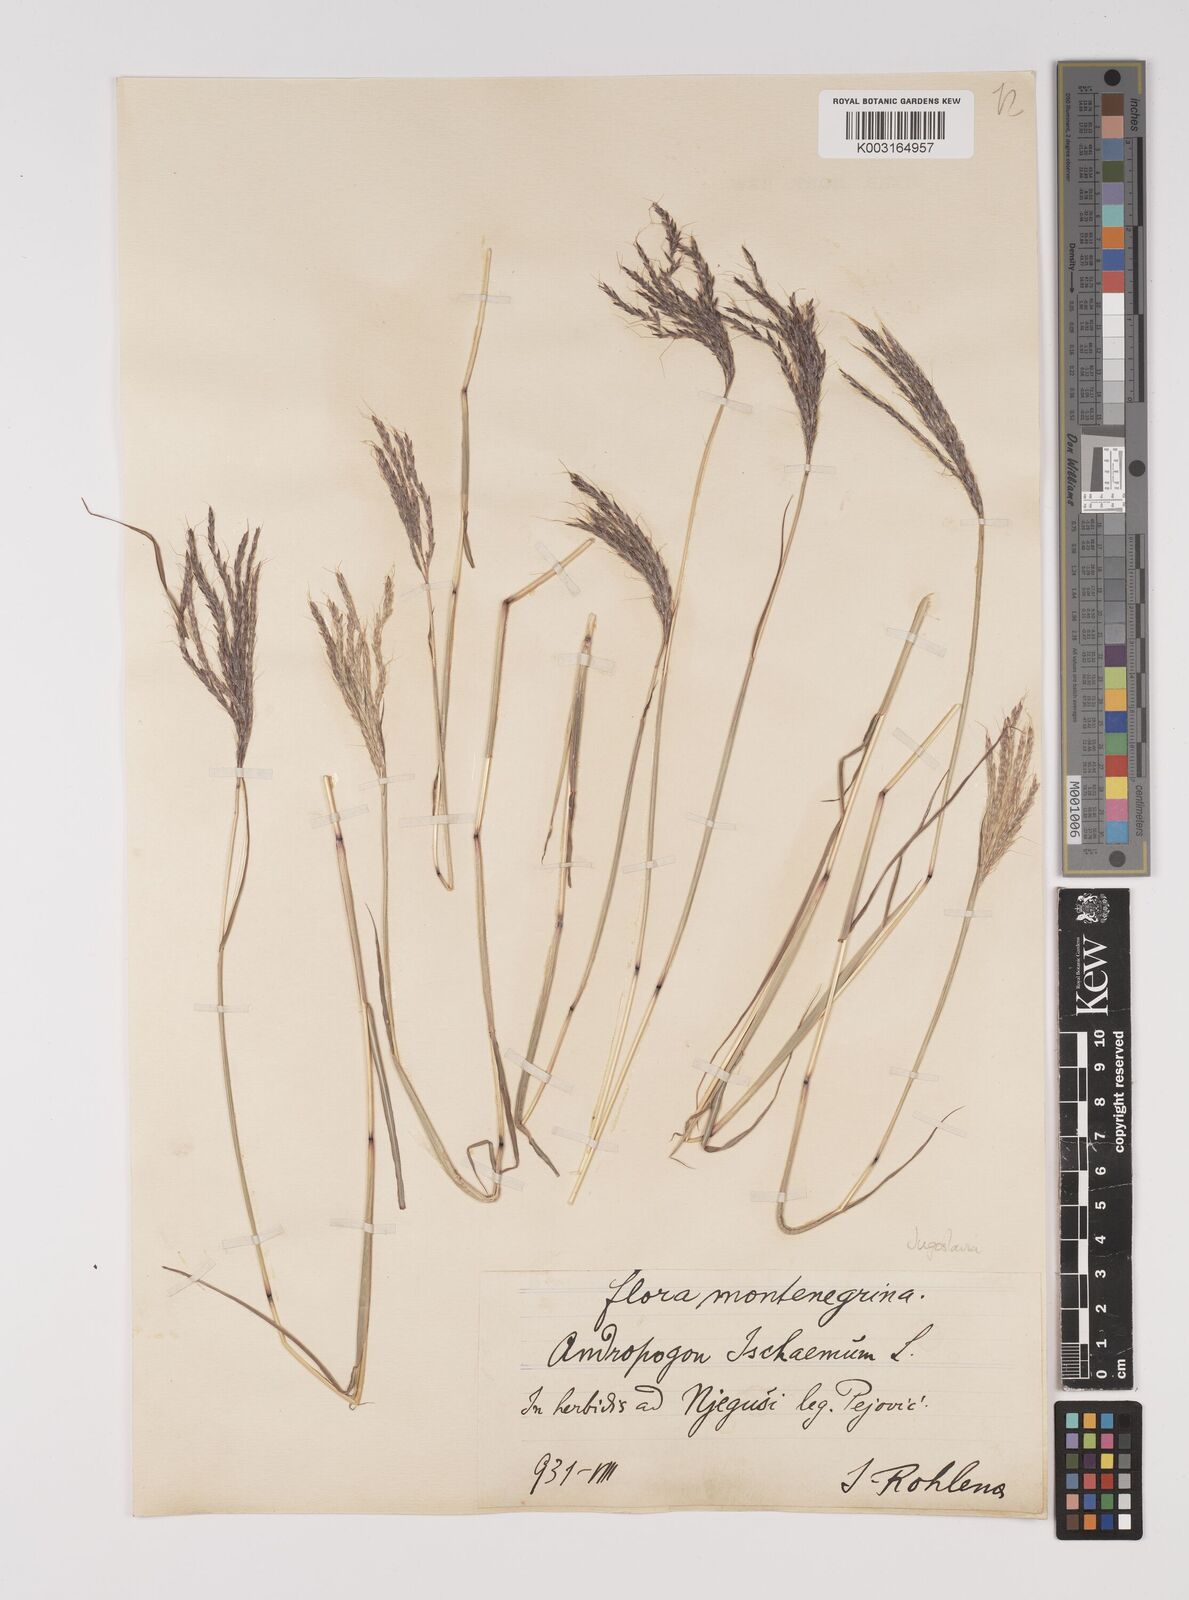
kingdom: Plantae
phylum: Tracheophyta
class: Liliopsida
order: Poales
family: Poaceae
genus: Bothriochloa
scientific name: Bothriochloa ischaemum
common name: Yellow bluestem
